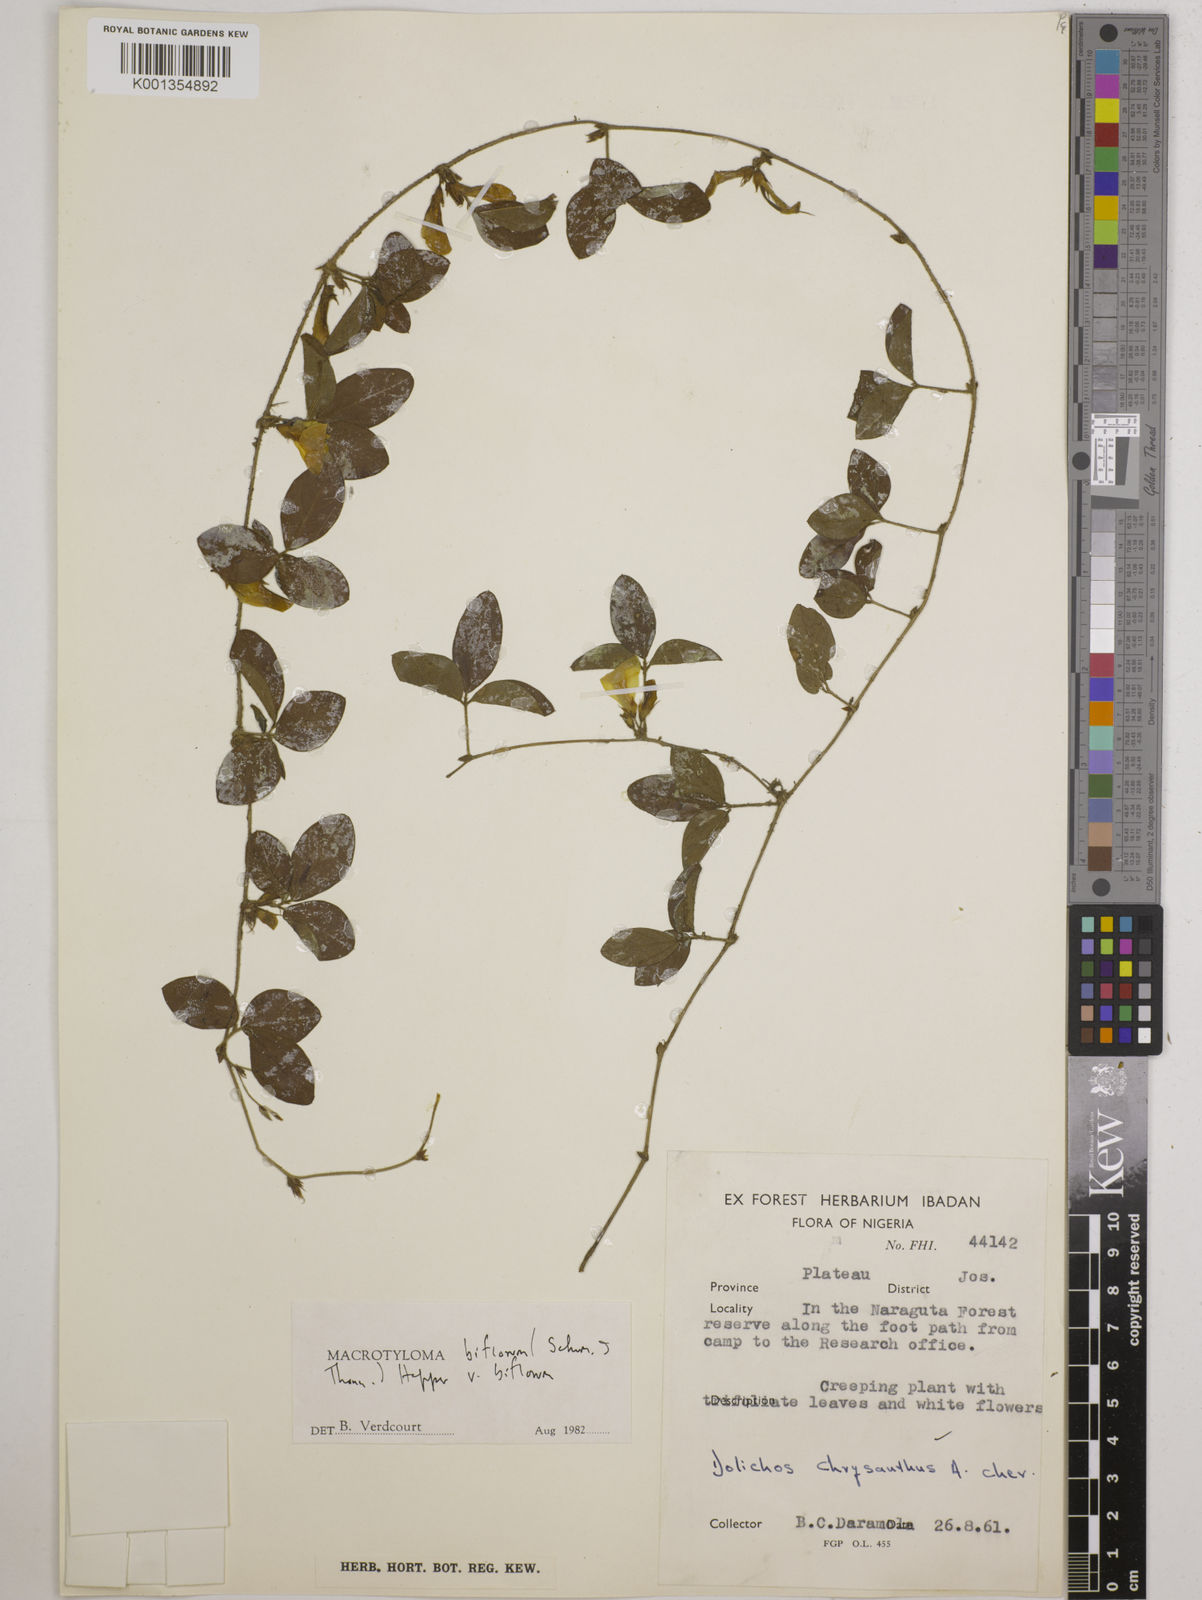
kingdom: Plantae
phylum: Tracheophyta
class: Magnoliopsida
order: Fabales
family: Fabaceae
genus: Macrotyloma
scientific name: Macrotyloma biflorum
